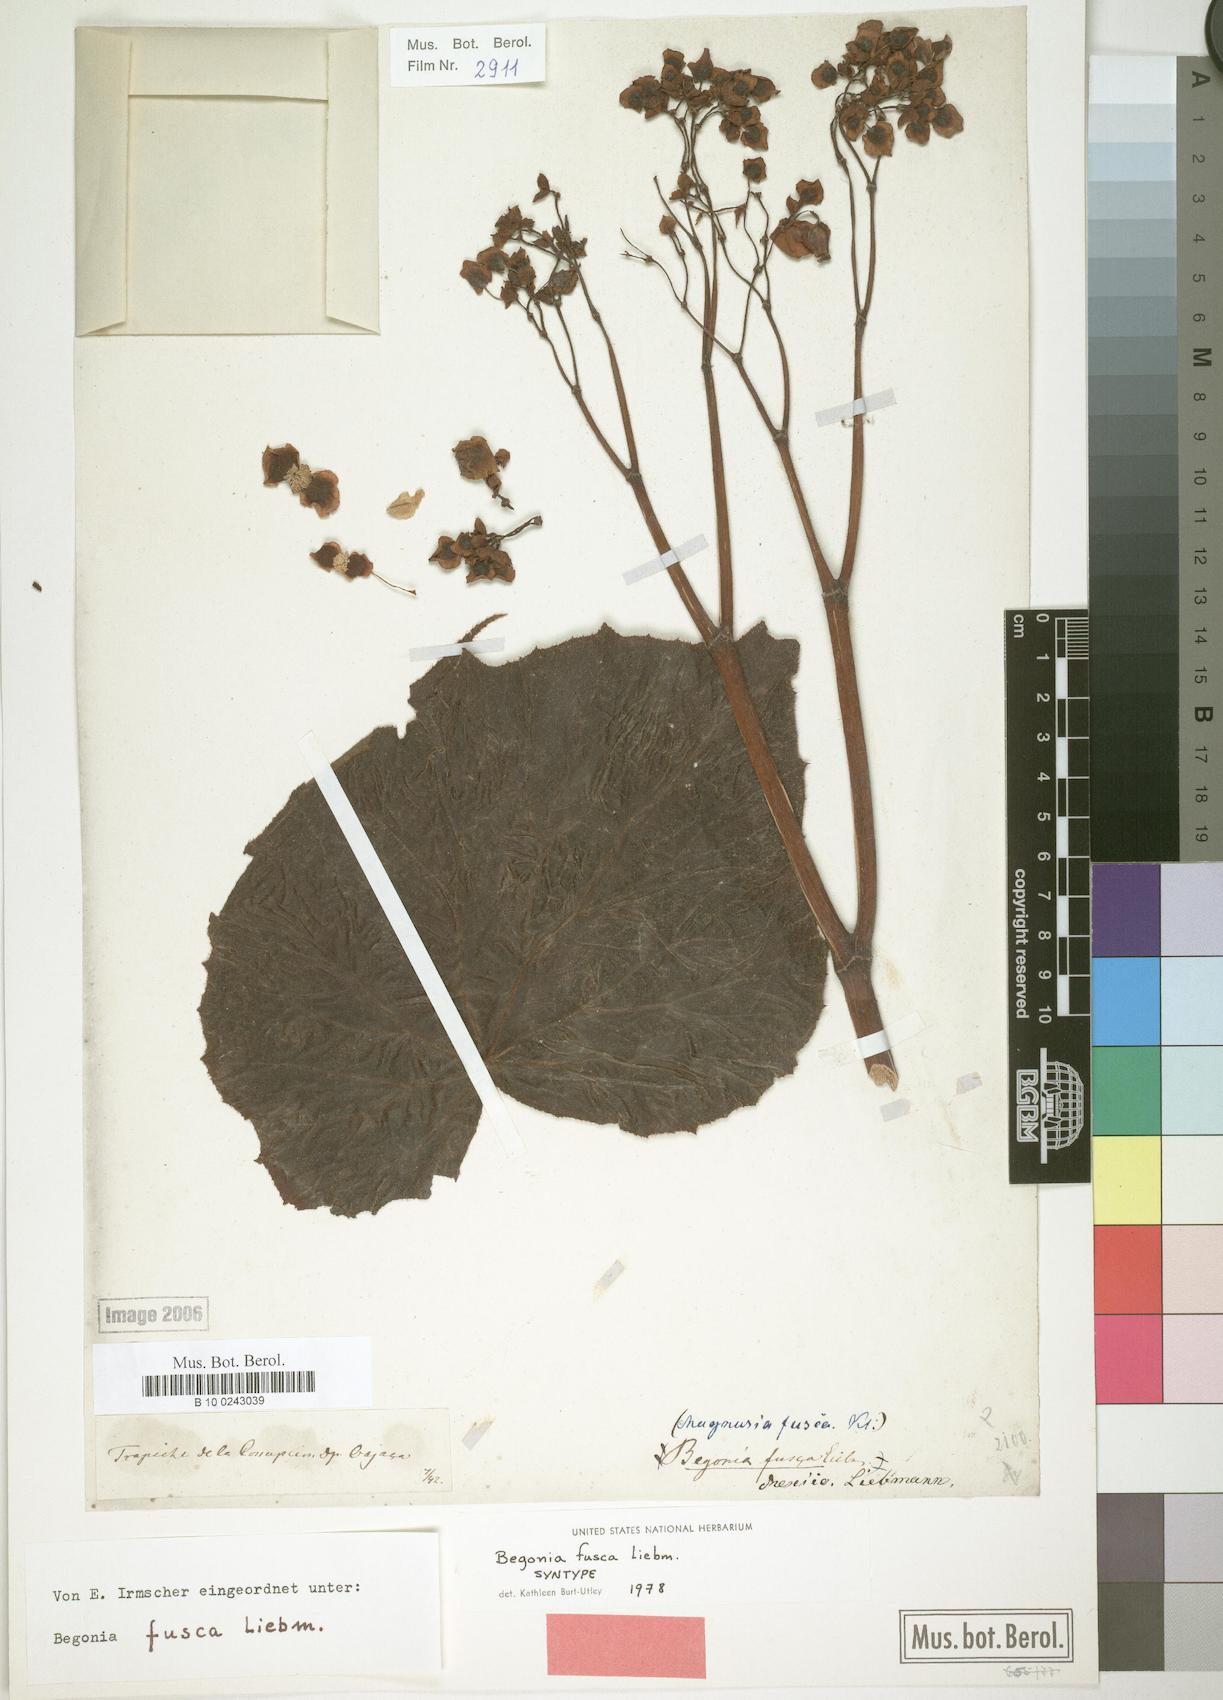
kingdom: Plantae
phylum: Tracheophyta
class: Magnoliopsida
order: Cucurbitales
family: Begoniaceae
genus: Begonia
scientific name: Begonia fusca
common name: Begonia
